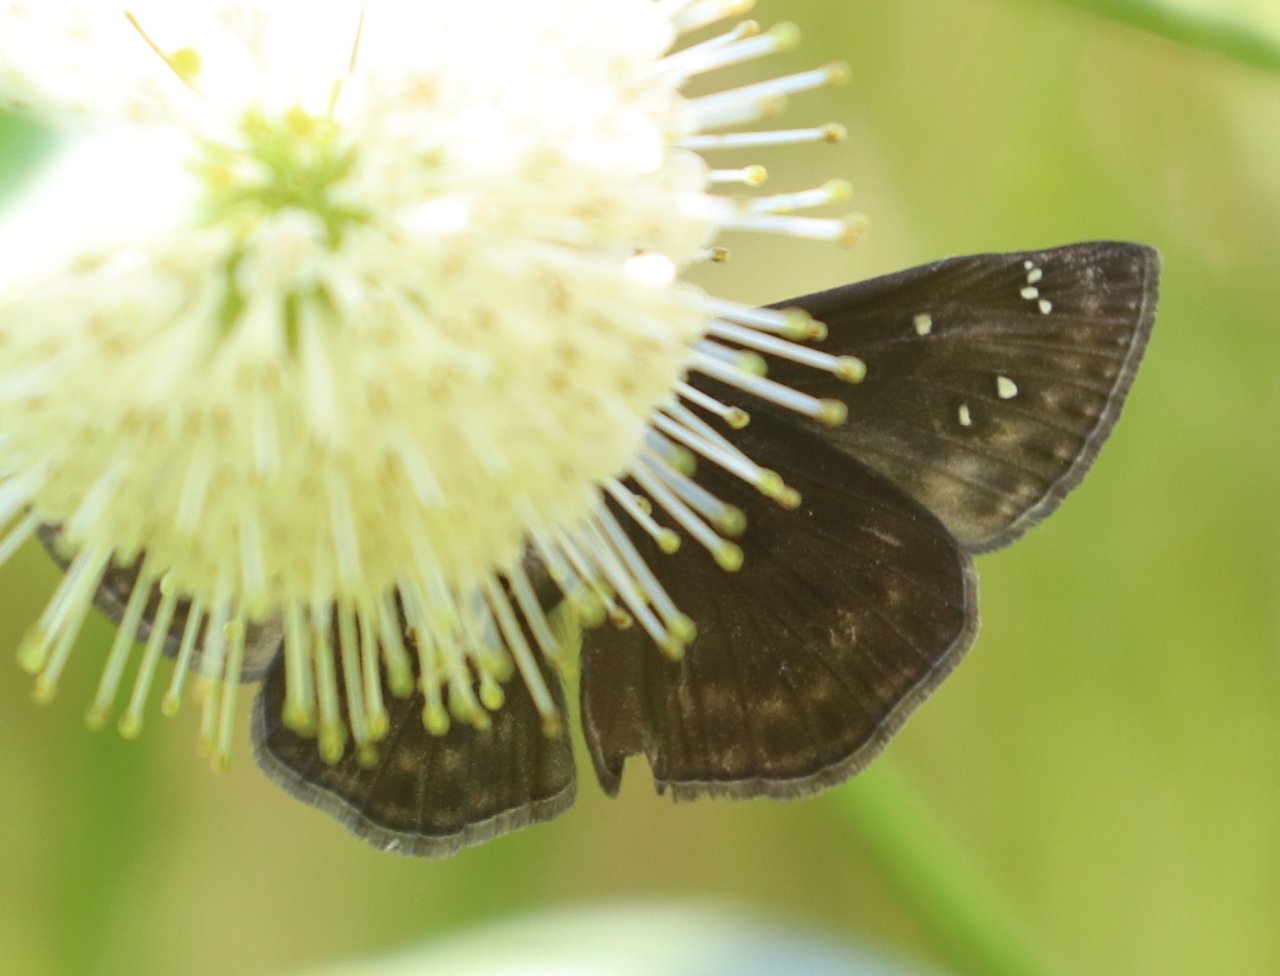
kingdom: Animalia
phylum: Arthropoda
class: Insecta
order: Lepidoptera
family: Hesperiidae
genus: Gesta
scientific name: Gesta
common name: Horace's Duskywing
